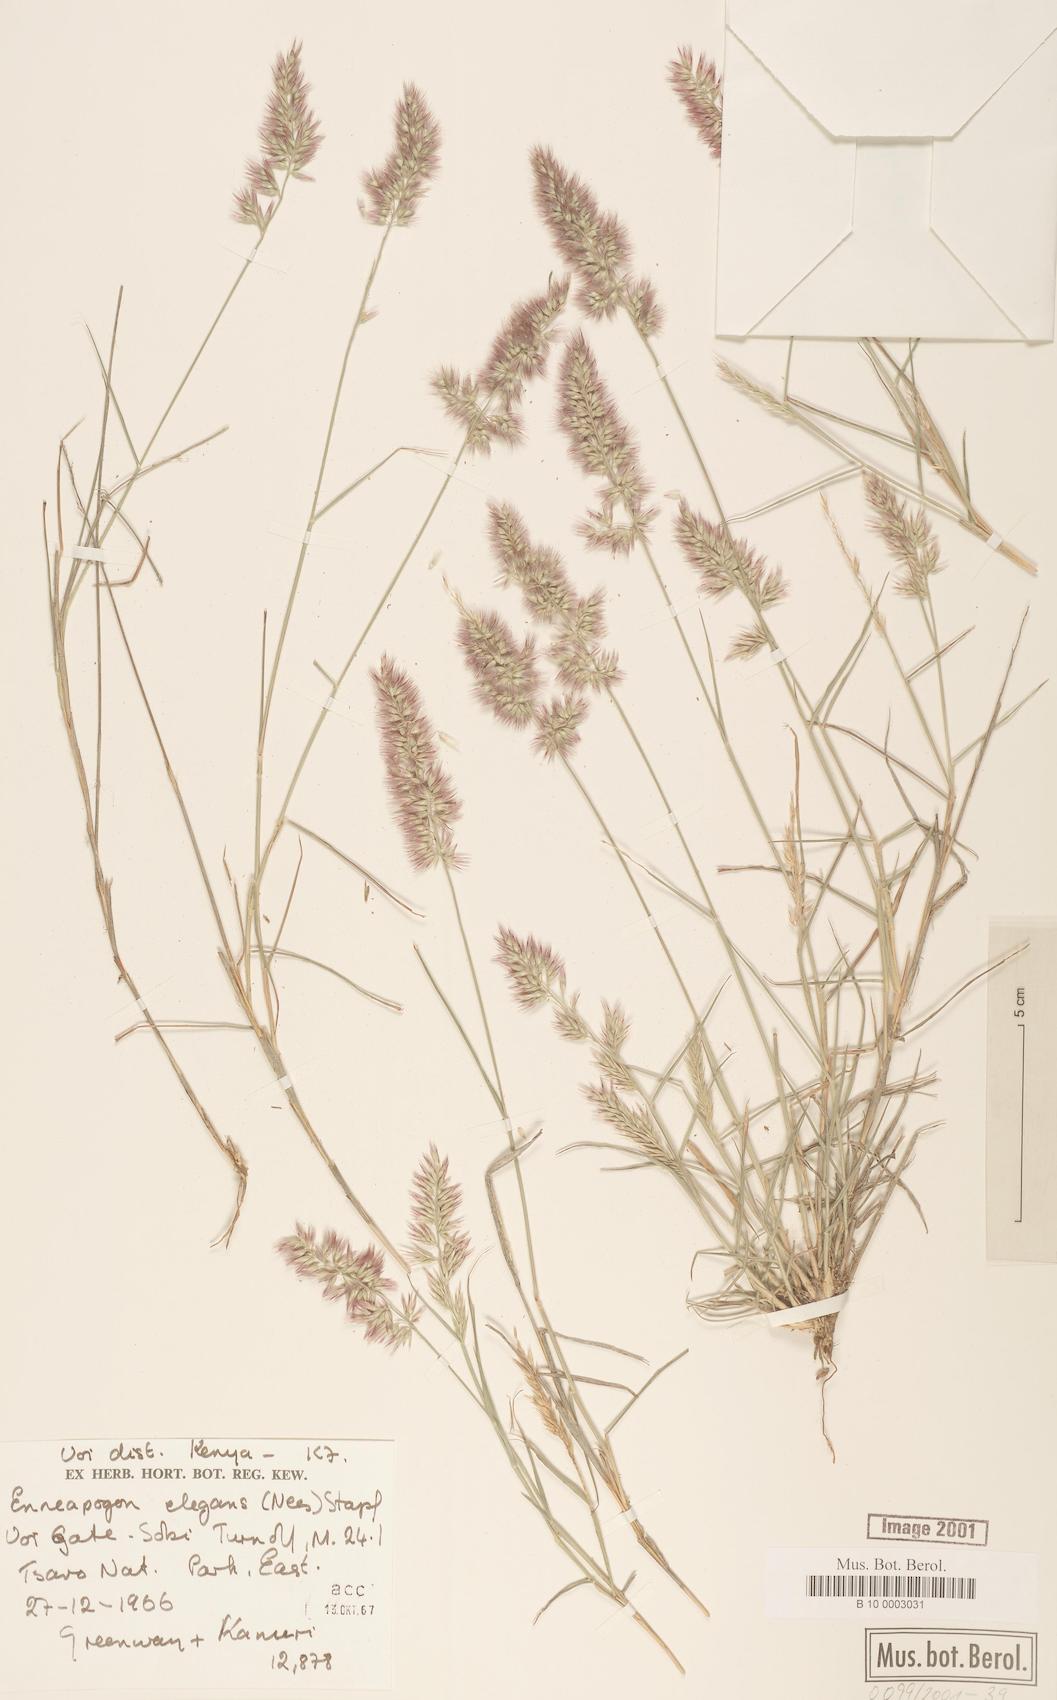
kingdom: Plantae
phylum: Tracheophyta
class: Liliopsida
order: Poales
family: Poaceae
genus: Enneapogon
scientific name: Enneapogon persicus
